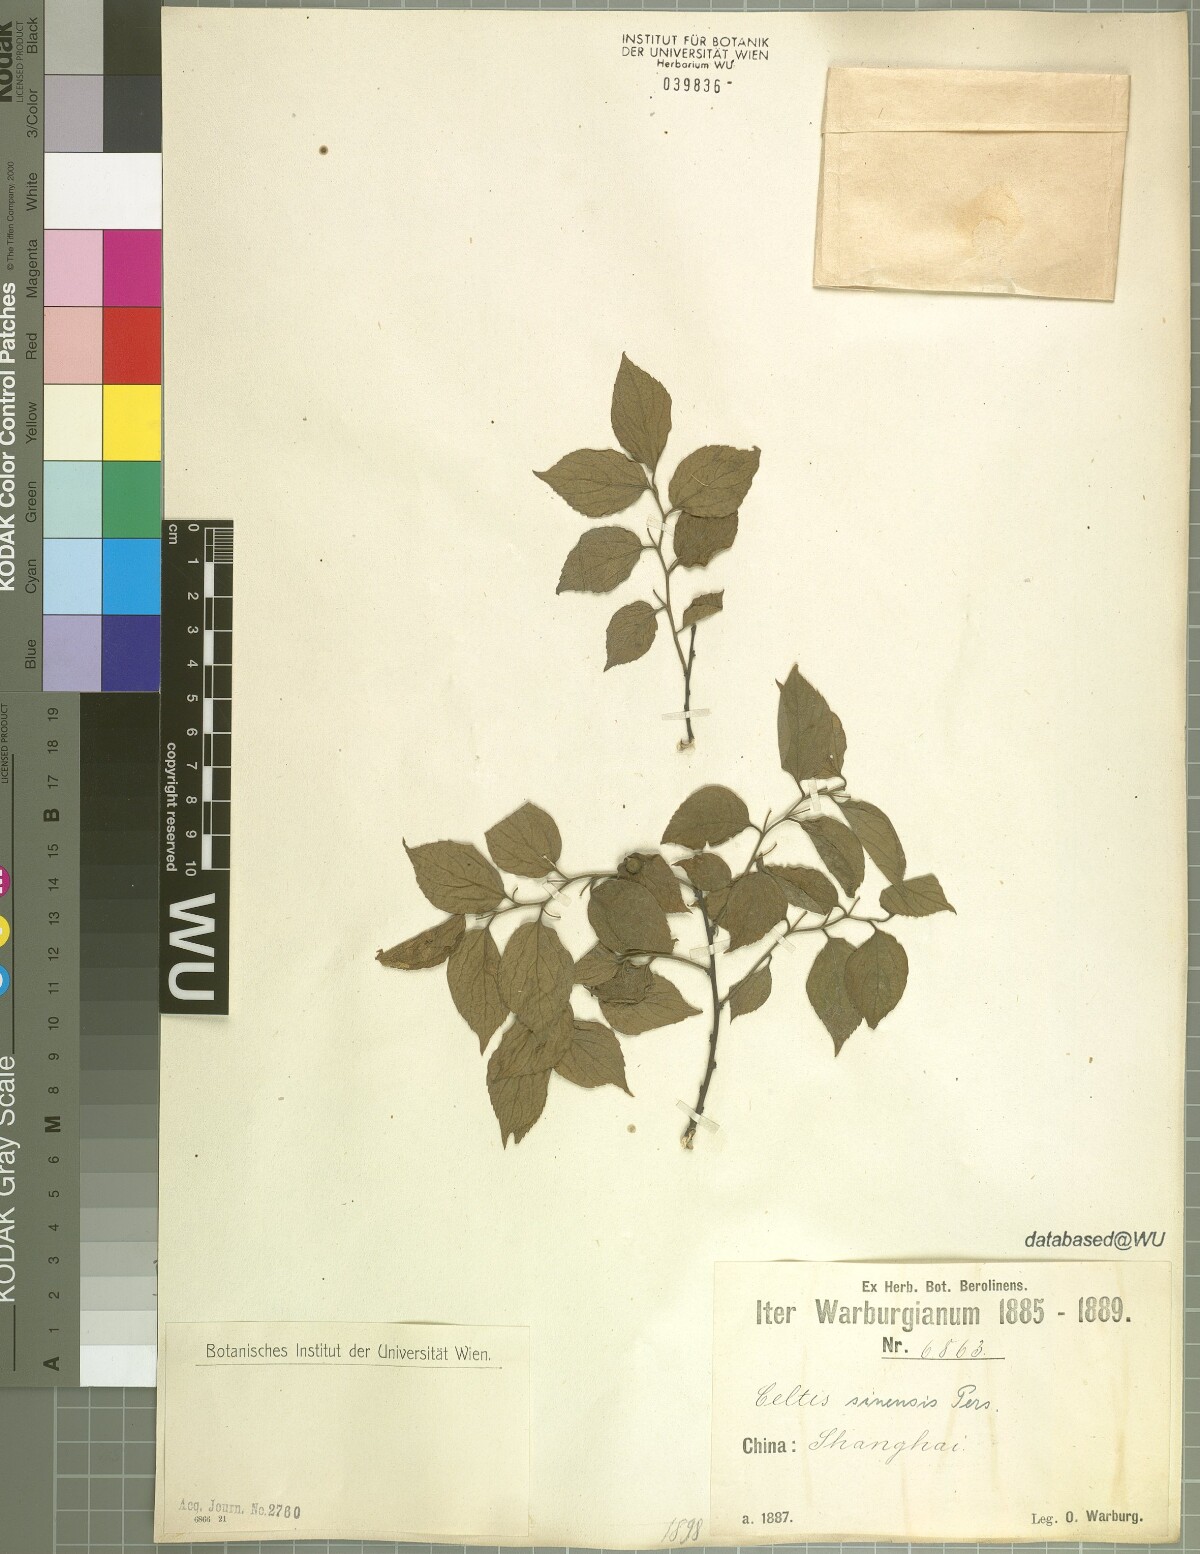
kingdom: Plantae
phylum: Tracheophyta
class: Magnoliopsida
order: Rosales
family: Cannabaceae
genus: Celtis
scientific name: Celtis sinensis
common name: Chinese hackberry
